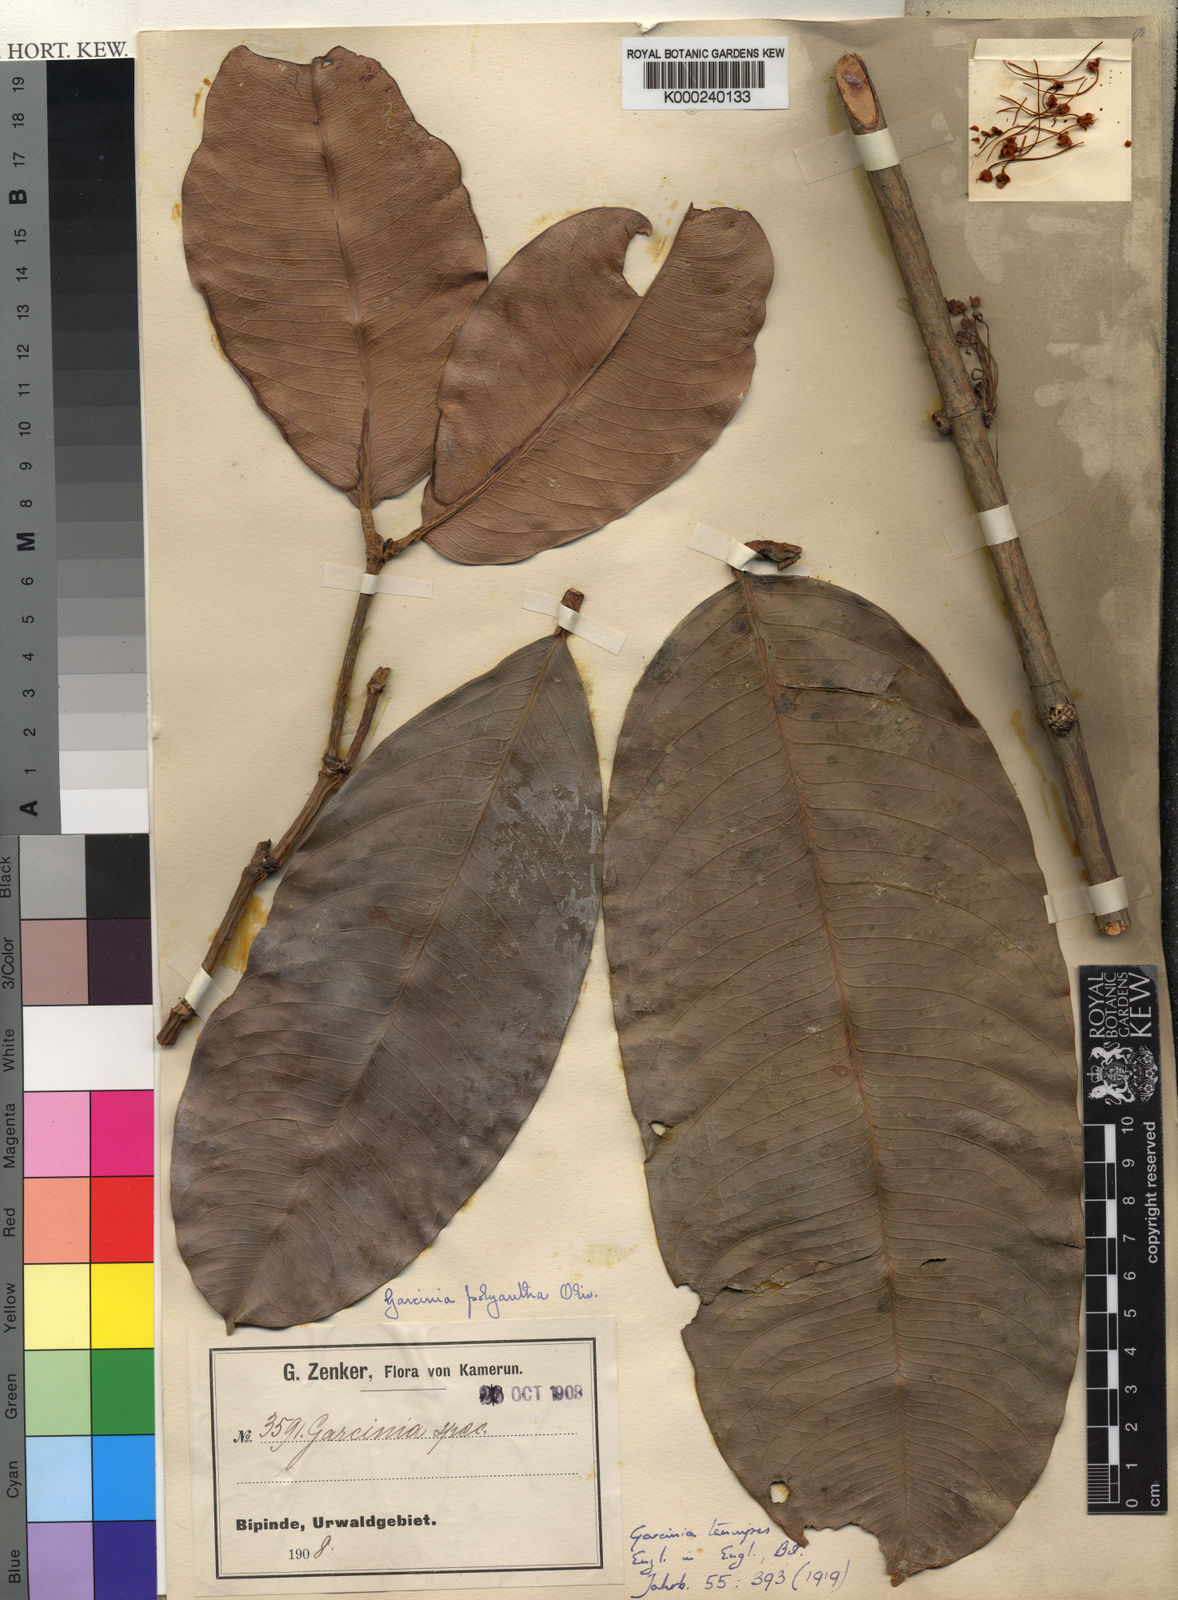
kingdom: Plantae
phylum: Tracheophyta
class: Magnoliopsida
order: Malpighiales
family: Clusiaceae
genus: Garcinia
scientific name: Garcinia smeathmannii
